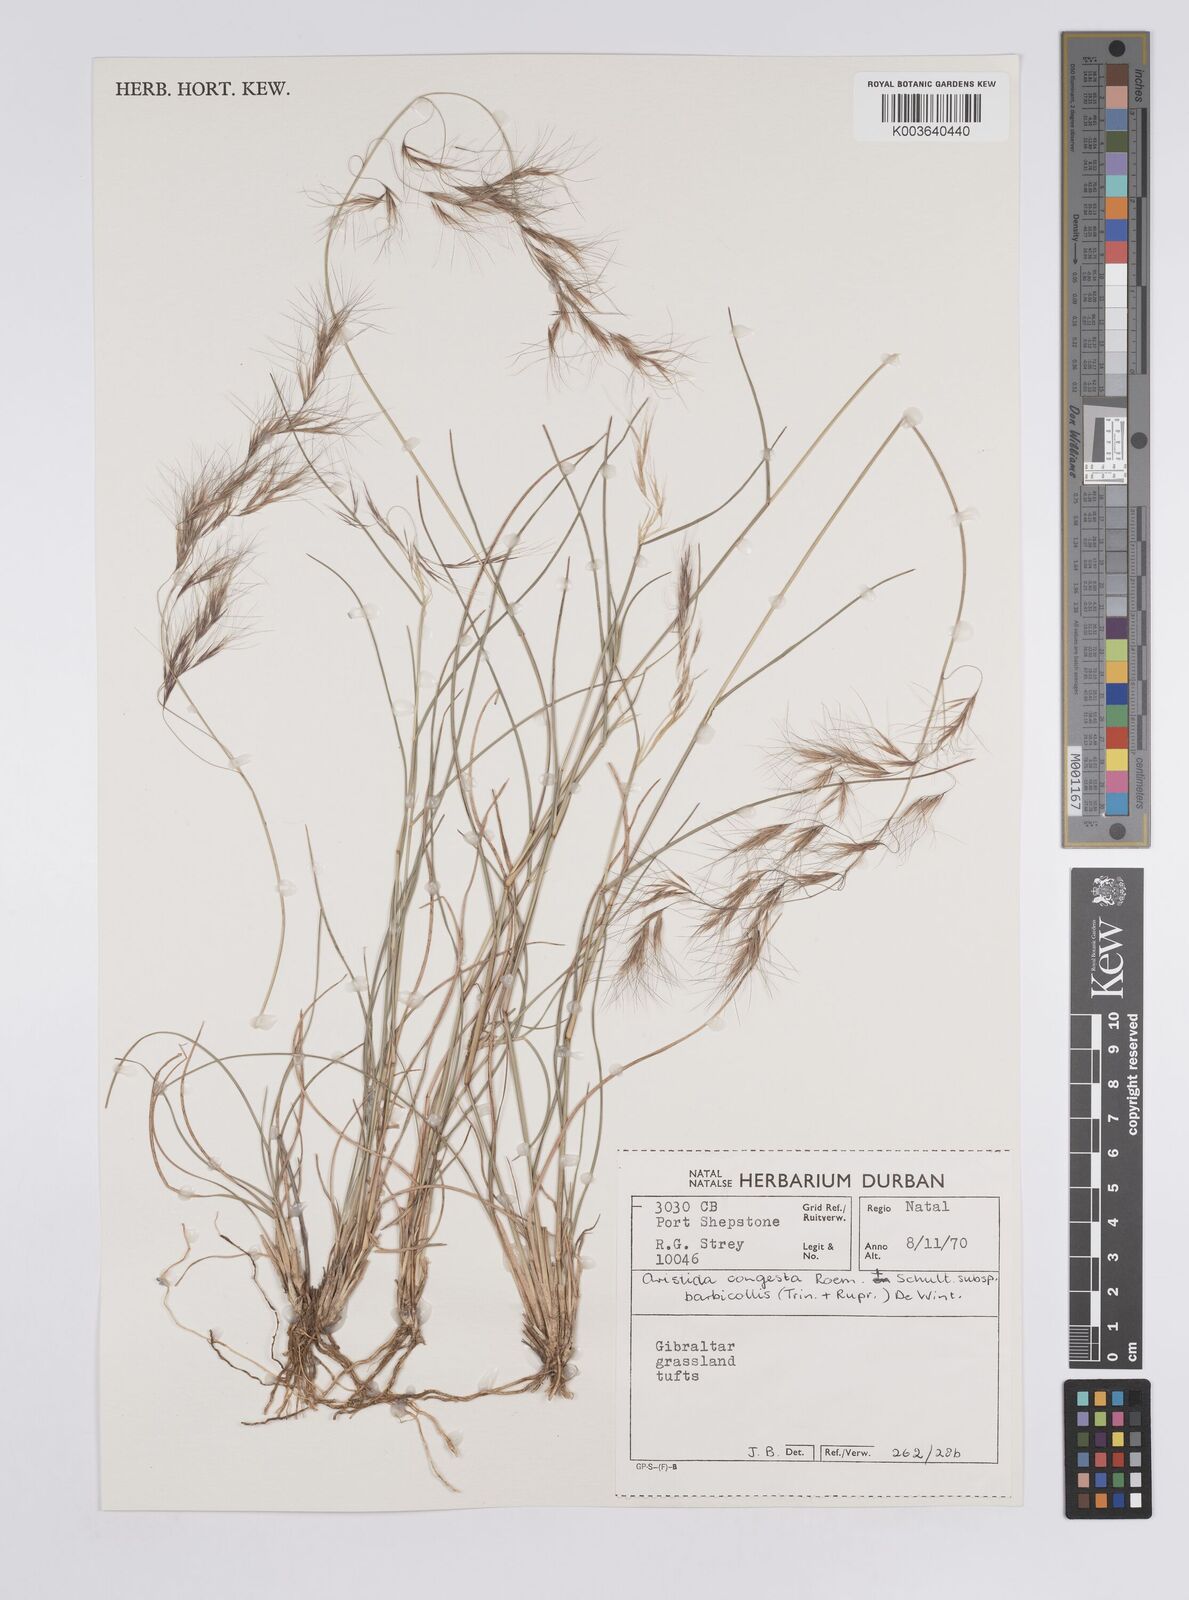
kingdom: Plantae
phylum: Tracheophyta
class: Liliopsida
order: Poales
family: Poaceae
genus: Aristida
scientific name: Aristida barbicollis
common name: Spreading prickle grass
